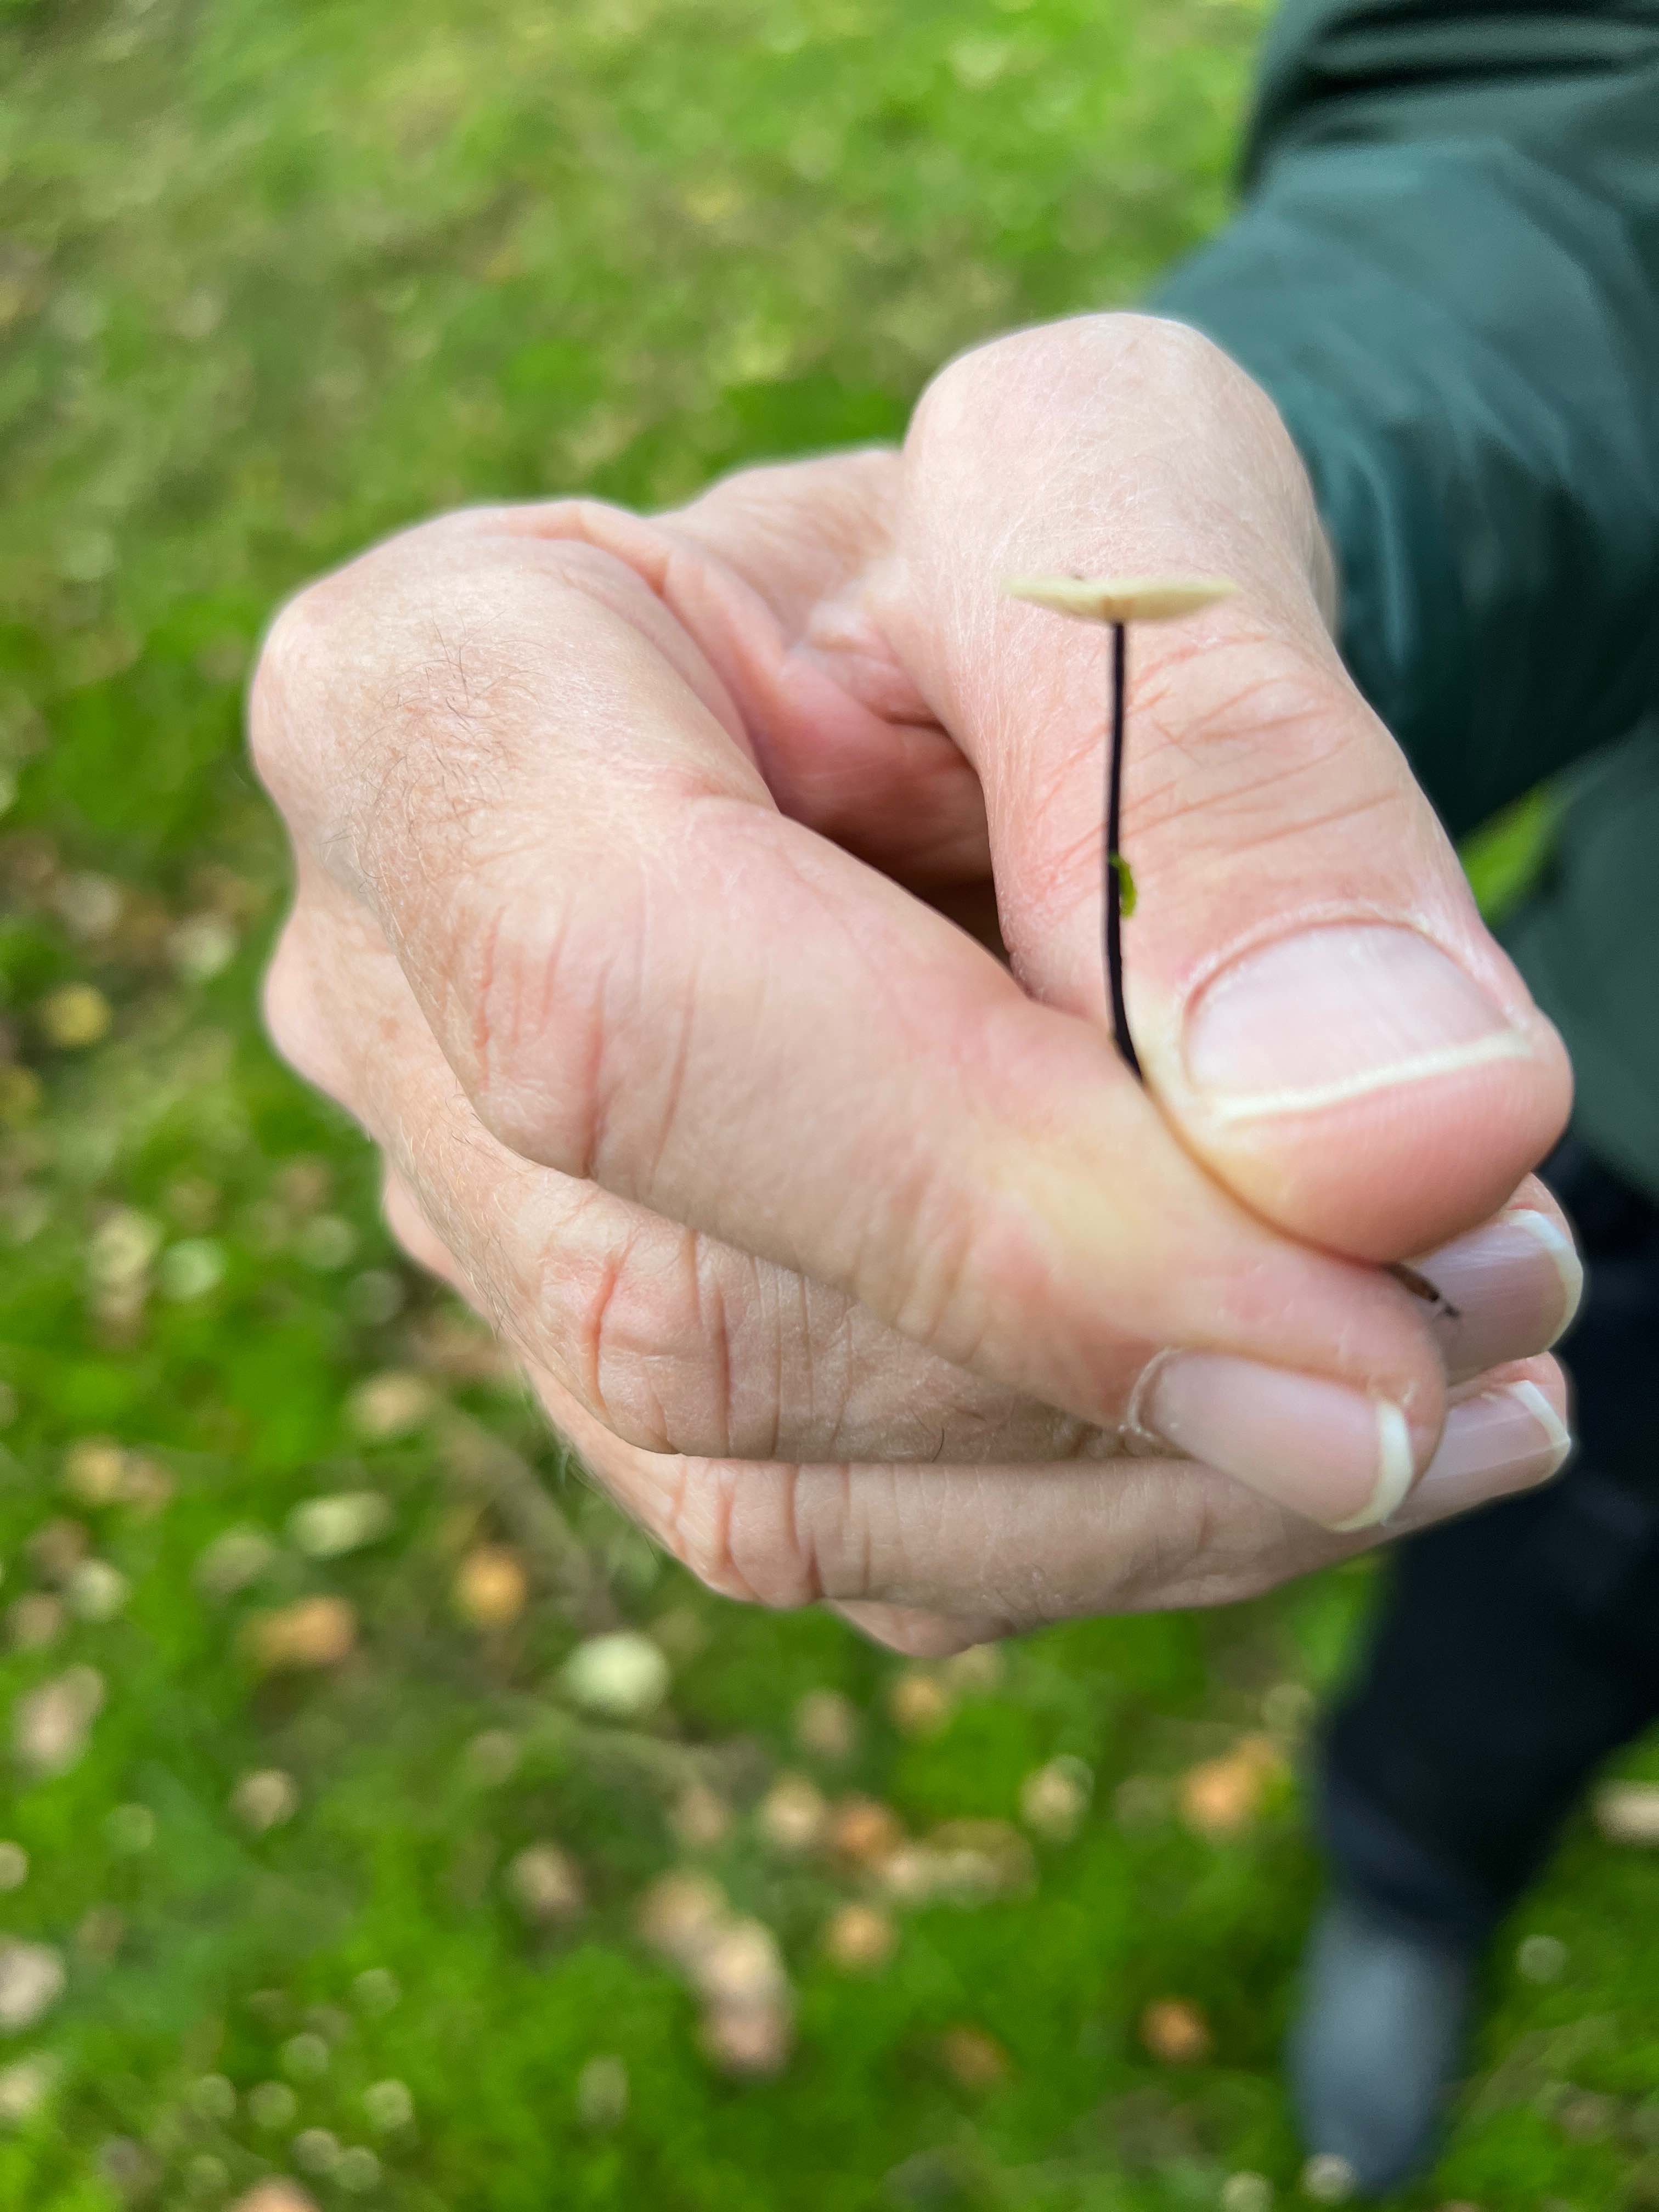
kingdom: Fungi
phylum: Basidiomycota
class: Agaricomycetes
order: Agaricales
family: Omphalotaceae
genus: Paragymnopus
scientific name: Paragymnopus perforans
